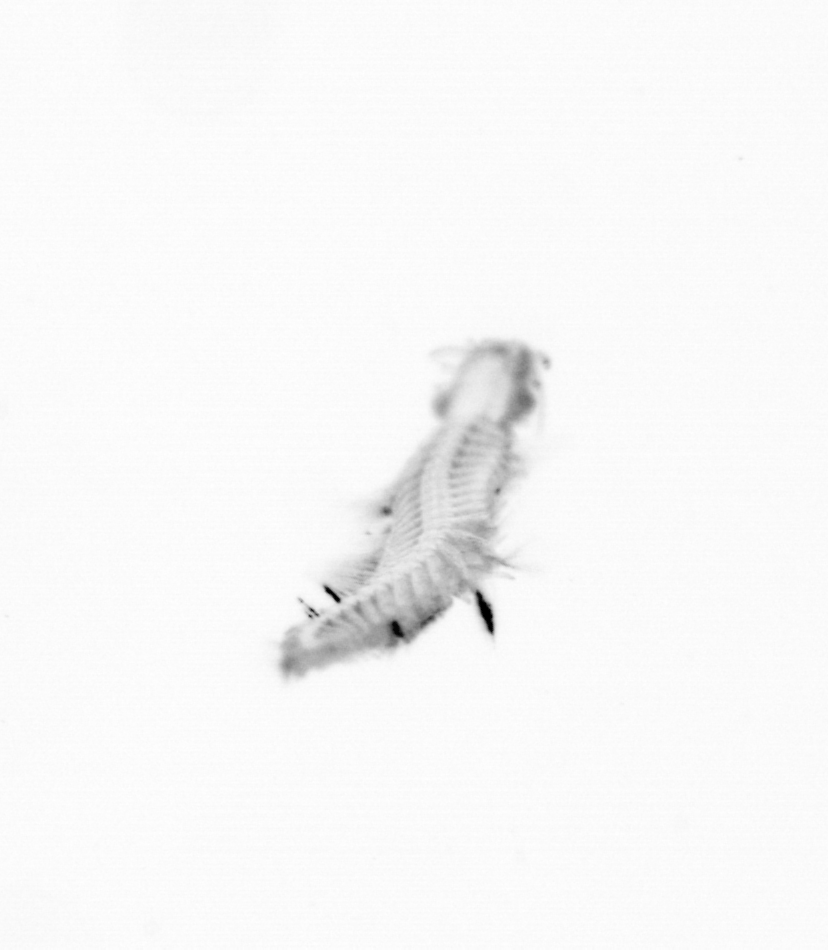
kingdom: Animalia
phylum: Annelida
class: Polychaeta
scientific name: Polychaeta
